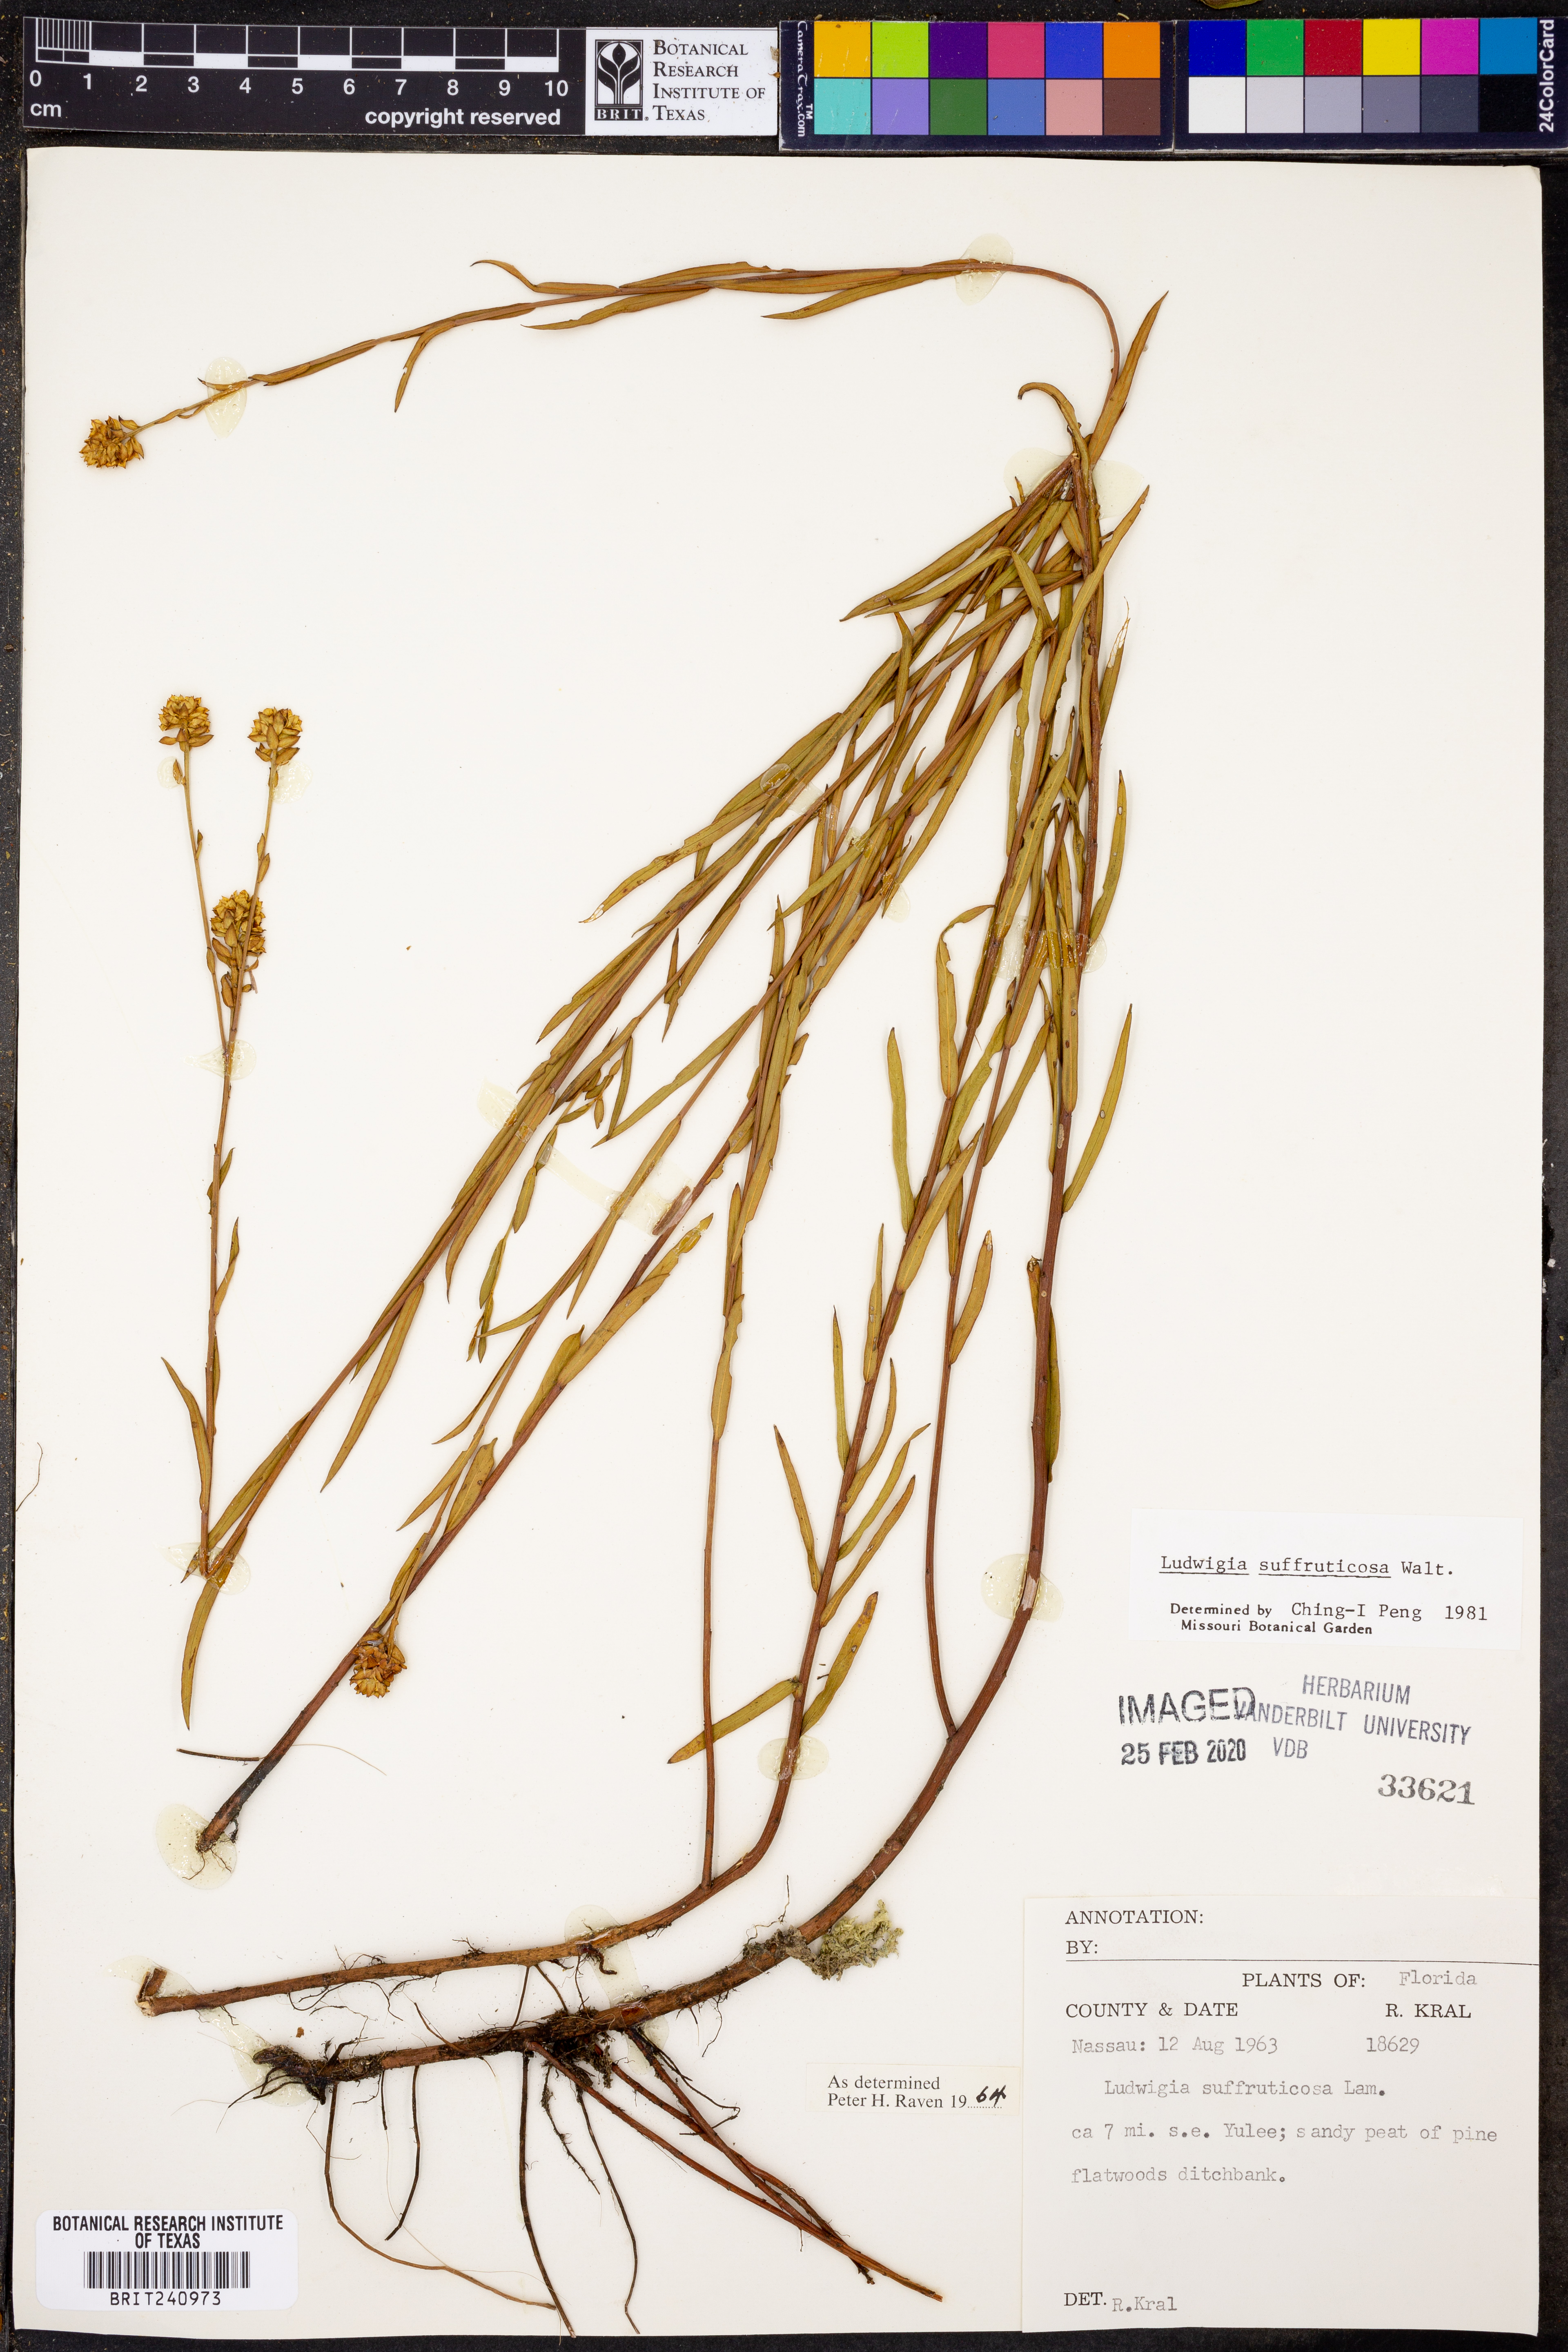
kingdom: Plantae
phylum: Tracheophyta
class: Magnoliopsida
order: Myrtales
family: Onagraceae
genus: Ludwigia
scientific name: Ludwigia suffruticosa
